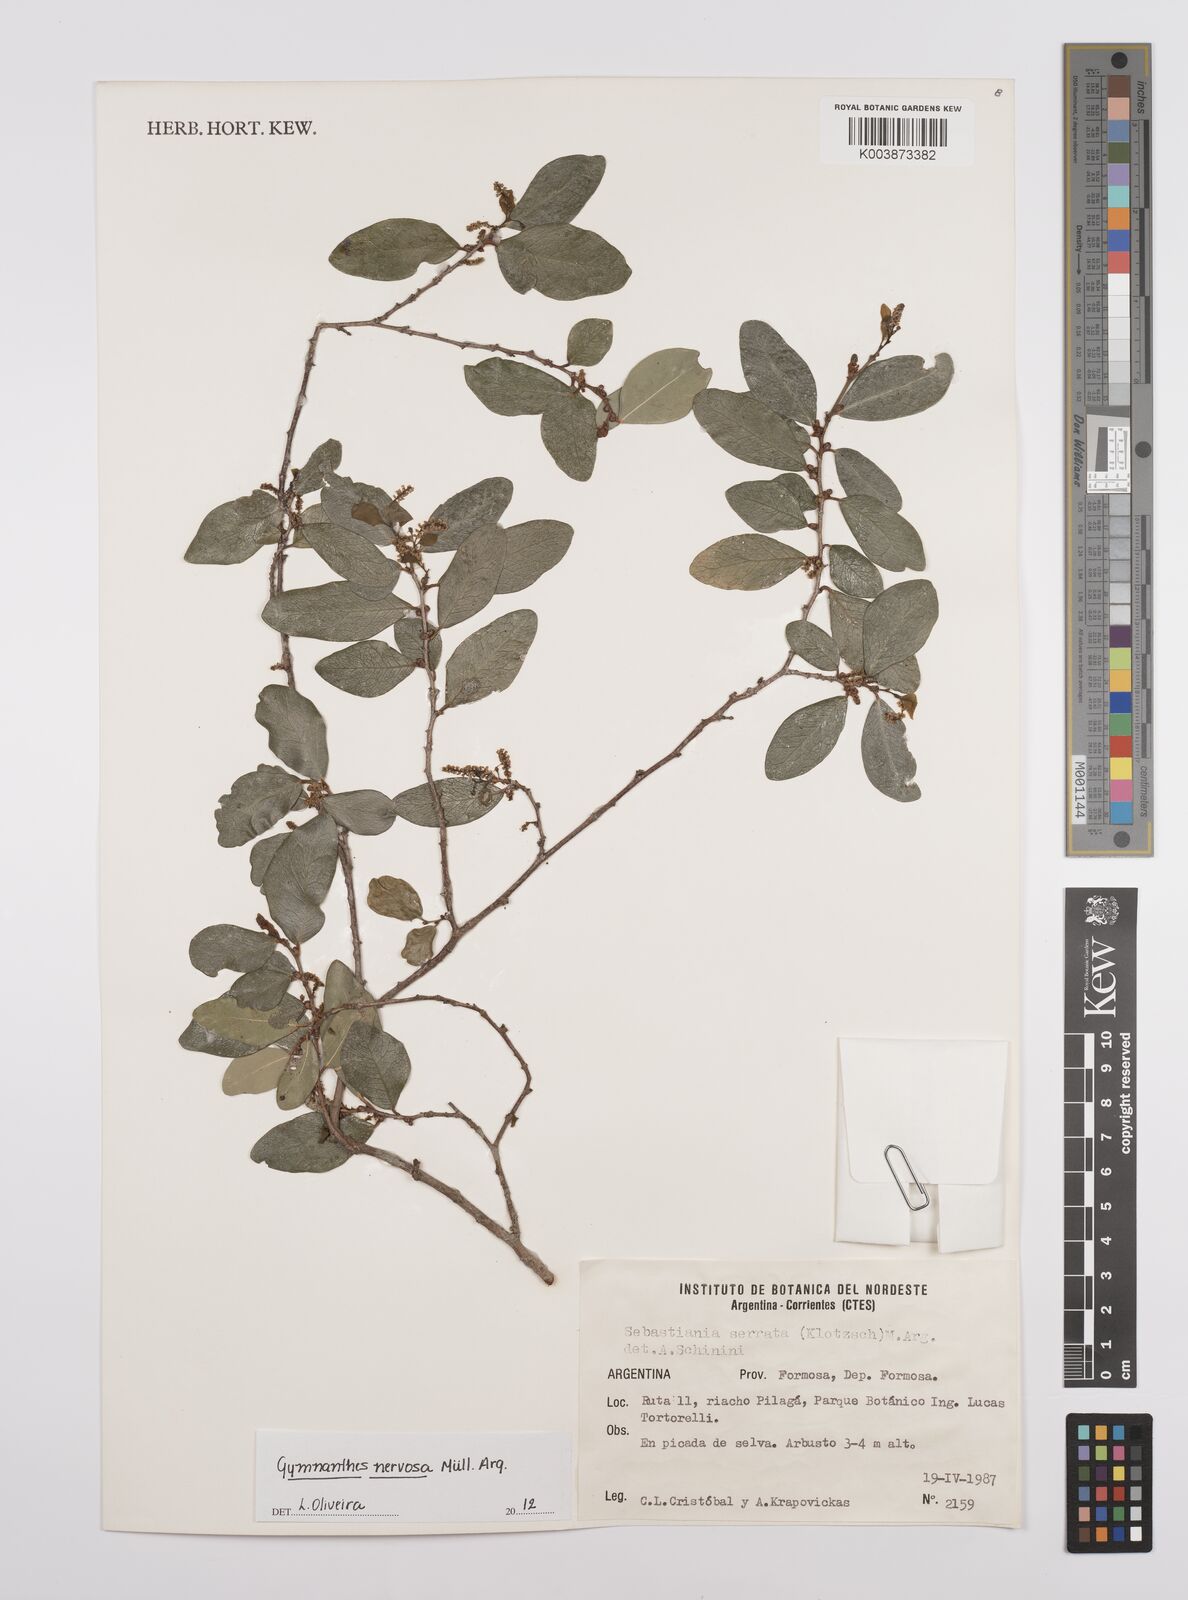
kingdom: Plantae
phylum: Tracheophyta
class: Magnoliopsida
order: Malpighiales
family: Euphorbiaceae
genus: Gymnanthes
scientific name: Gymnanthes nervosa
